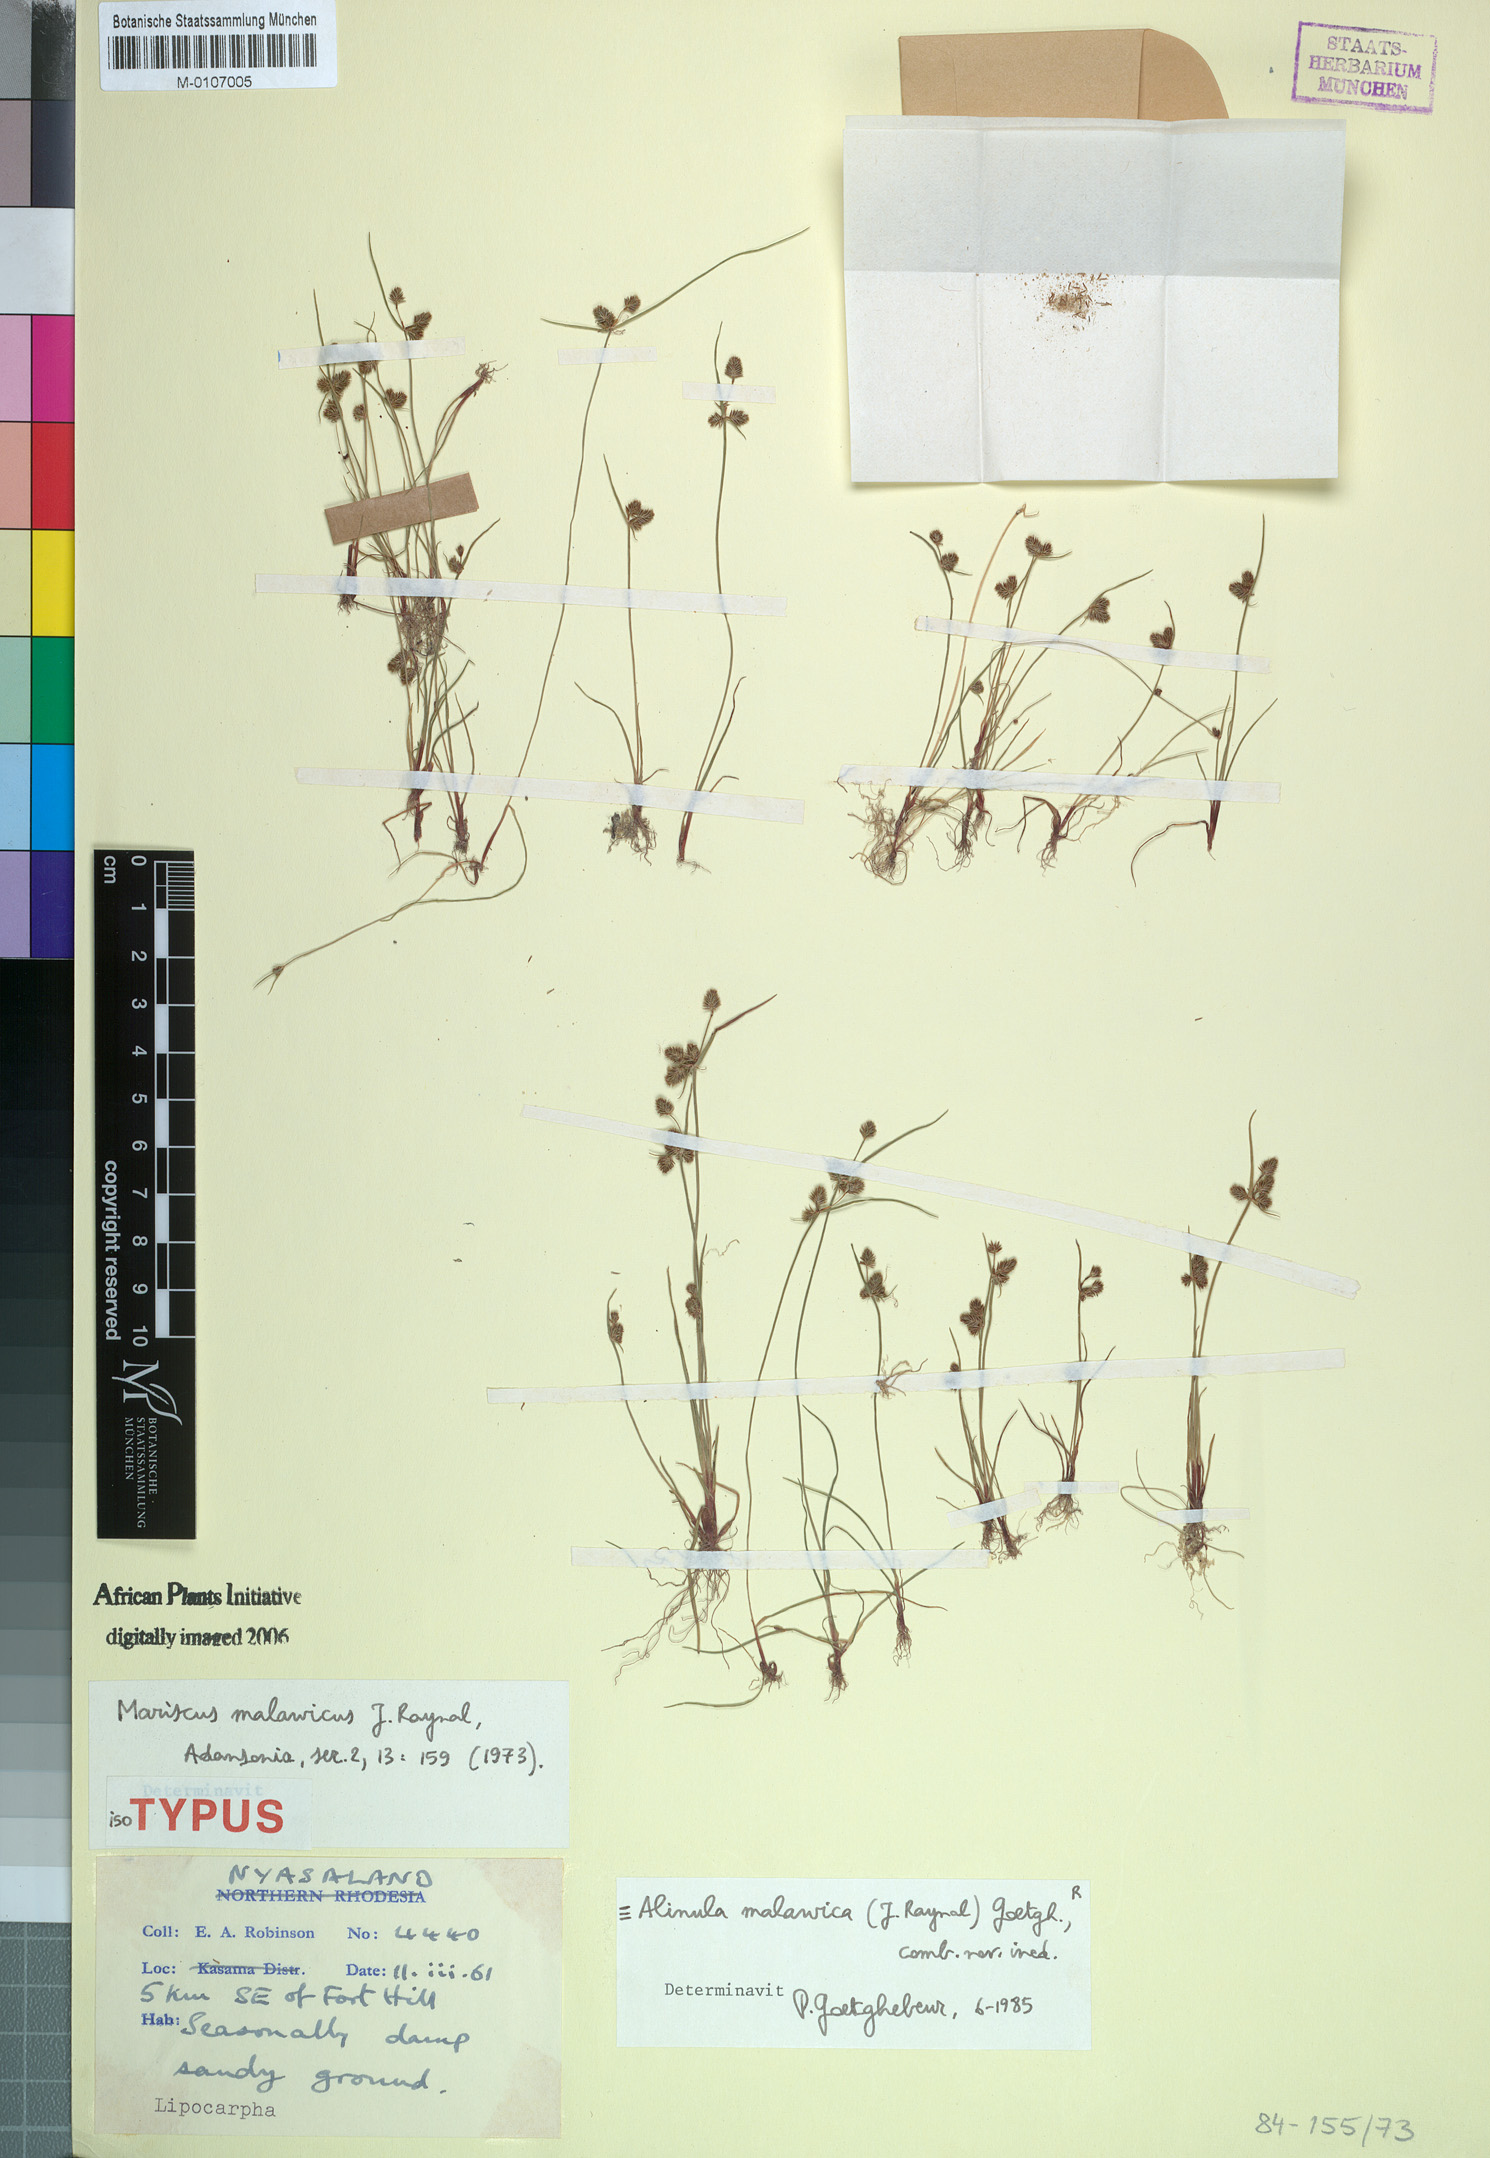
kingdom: Plantae
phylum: Tracheophyta
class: Liliopsida
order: Poales
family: Cyperaceae
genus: Cyperus
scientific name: Cyperus malawicus
